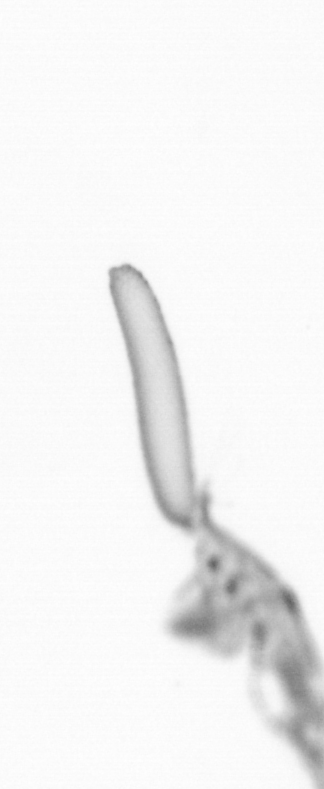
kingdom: Animalia
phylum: Arthropoda
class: Copepoda
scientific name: Copepoda
